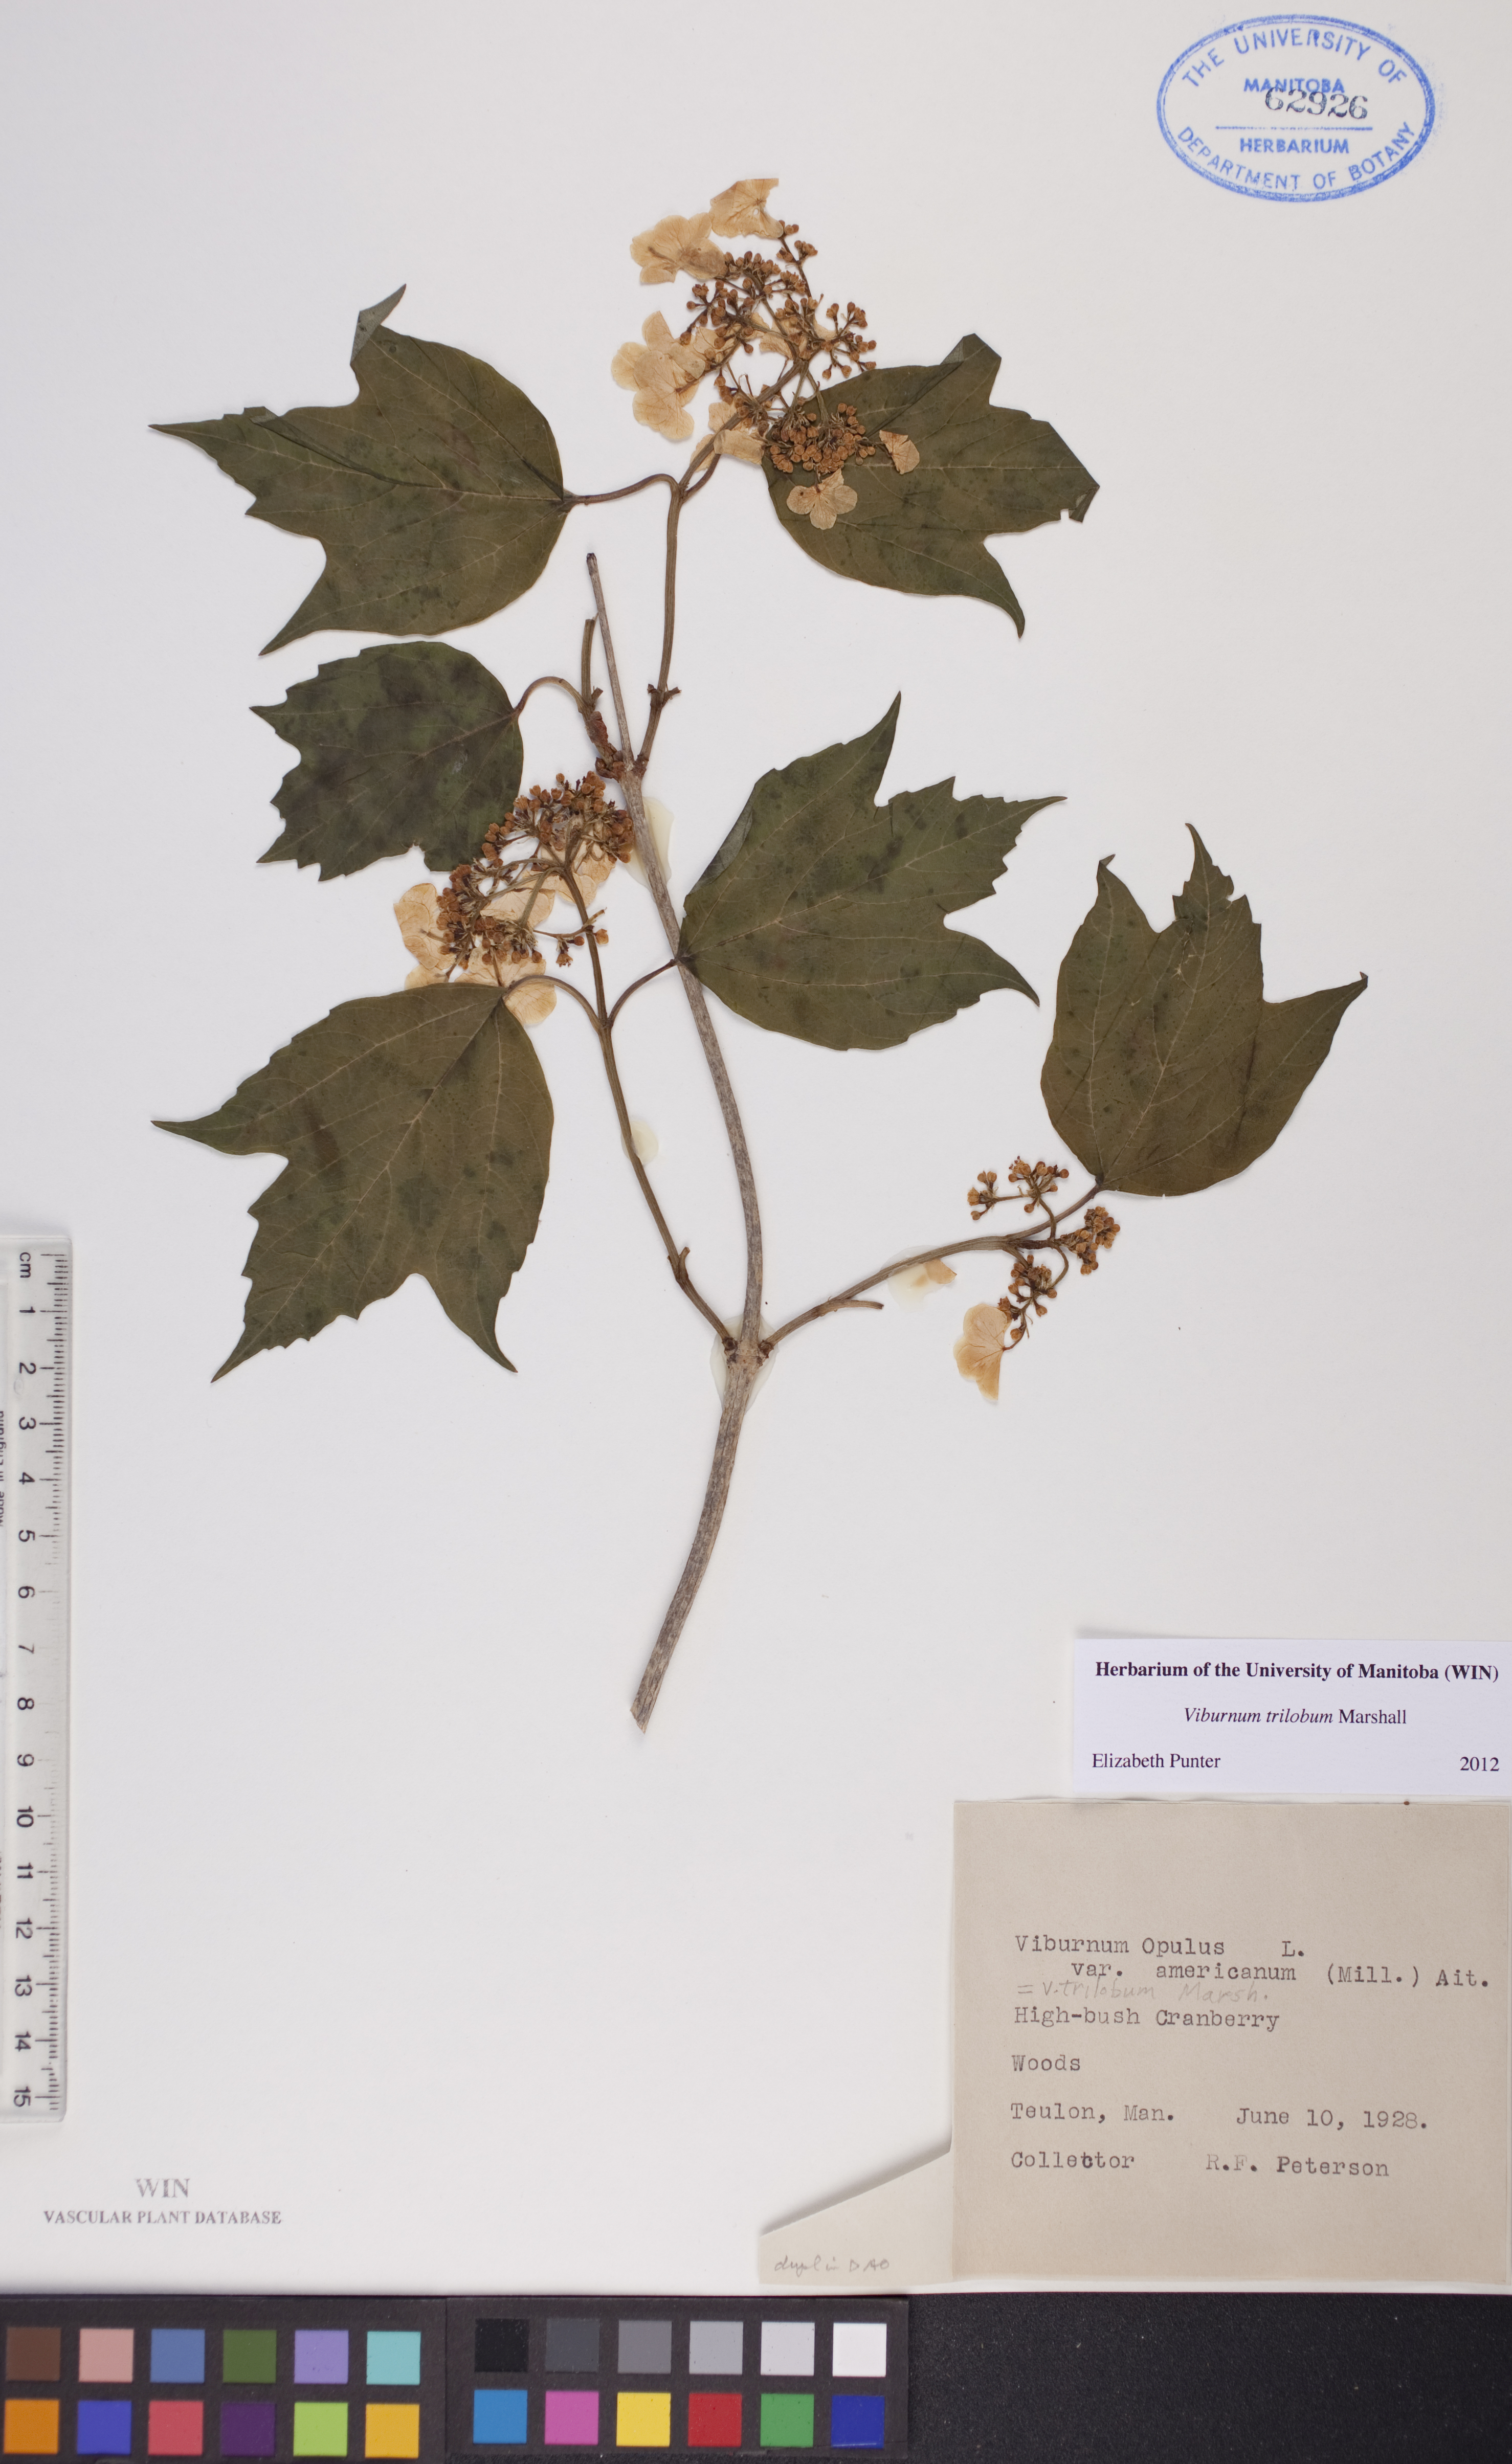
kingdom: Plantae
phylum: Tracheophyta
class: Magnoliopsida
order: Dipsacales
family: Viburnaceae
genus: Viburnum
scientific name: Viburnum trilobum
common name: American cranberrybush
